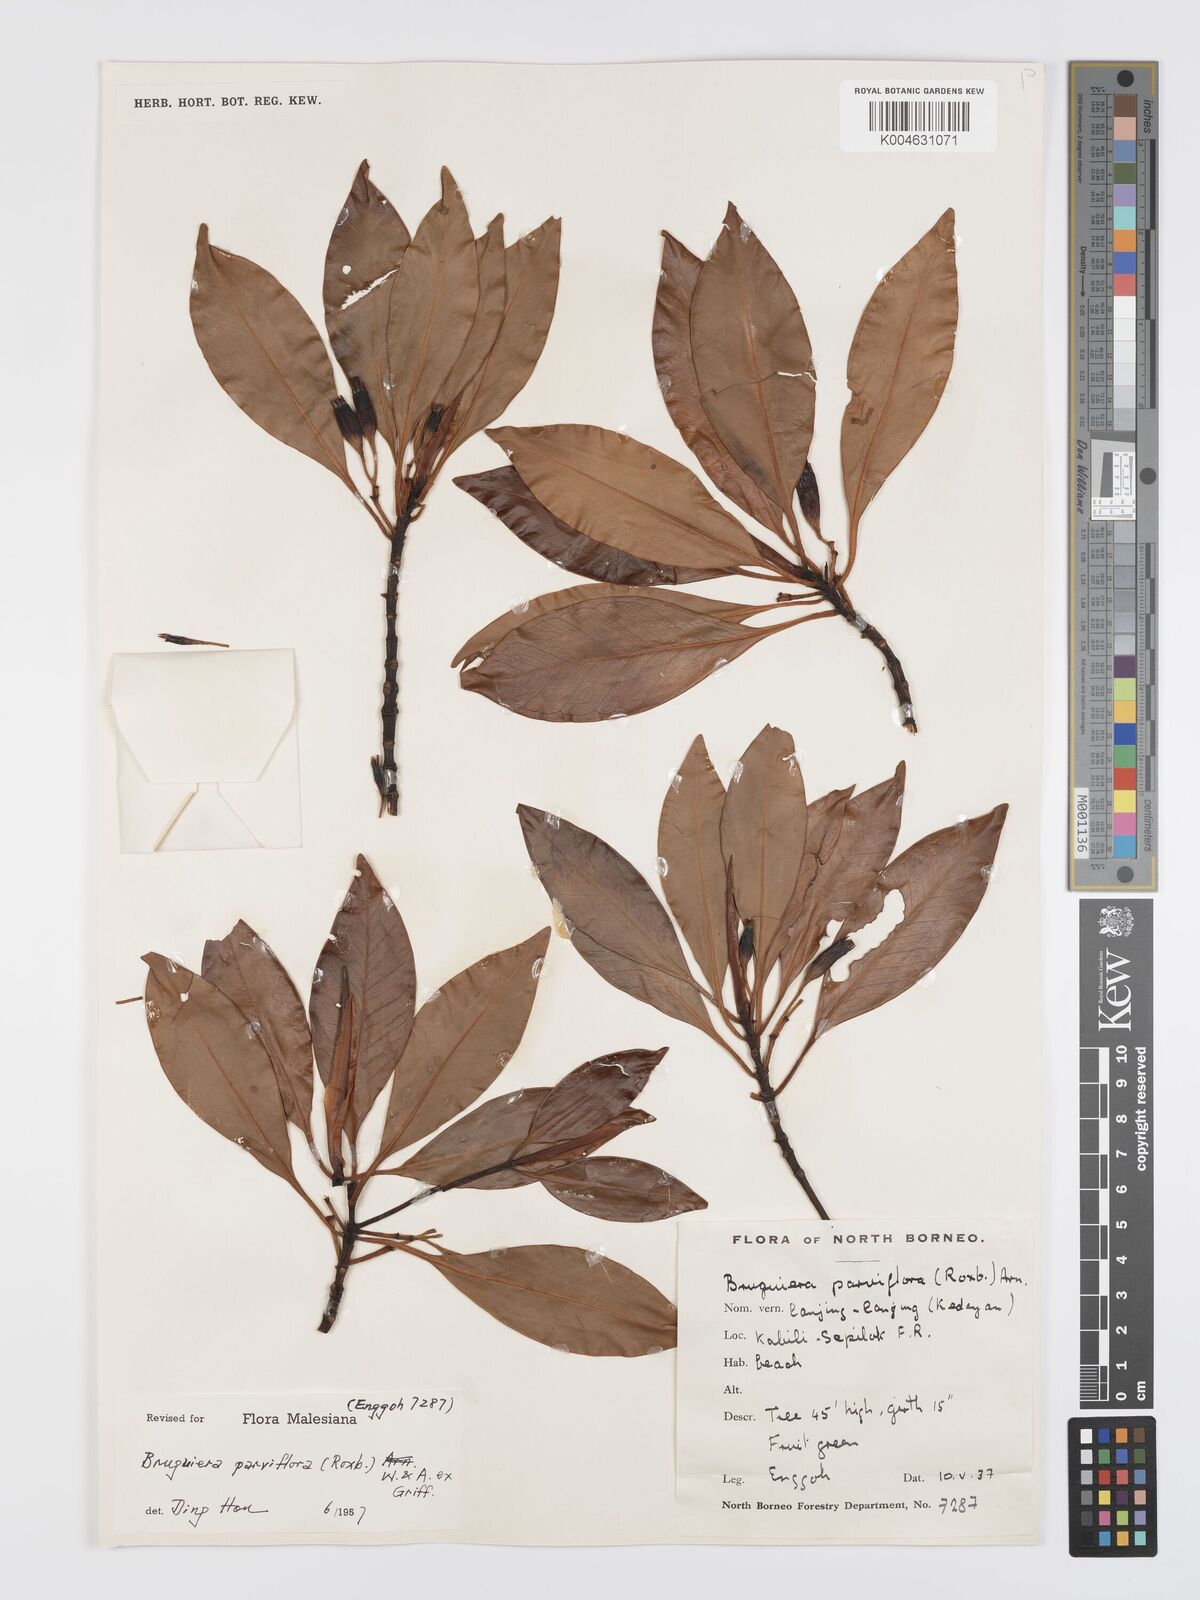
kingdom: Plantae
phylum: Tracheophyta
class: Magnoliopsida
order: Malpighiales
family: Rhizophoraceae
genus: Bruguiera
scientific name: Bruguiera parviflora
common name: Smallflower bruguiera
